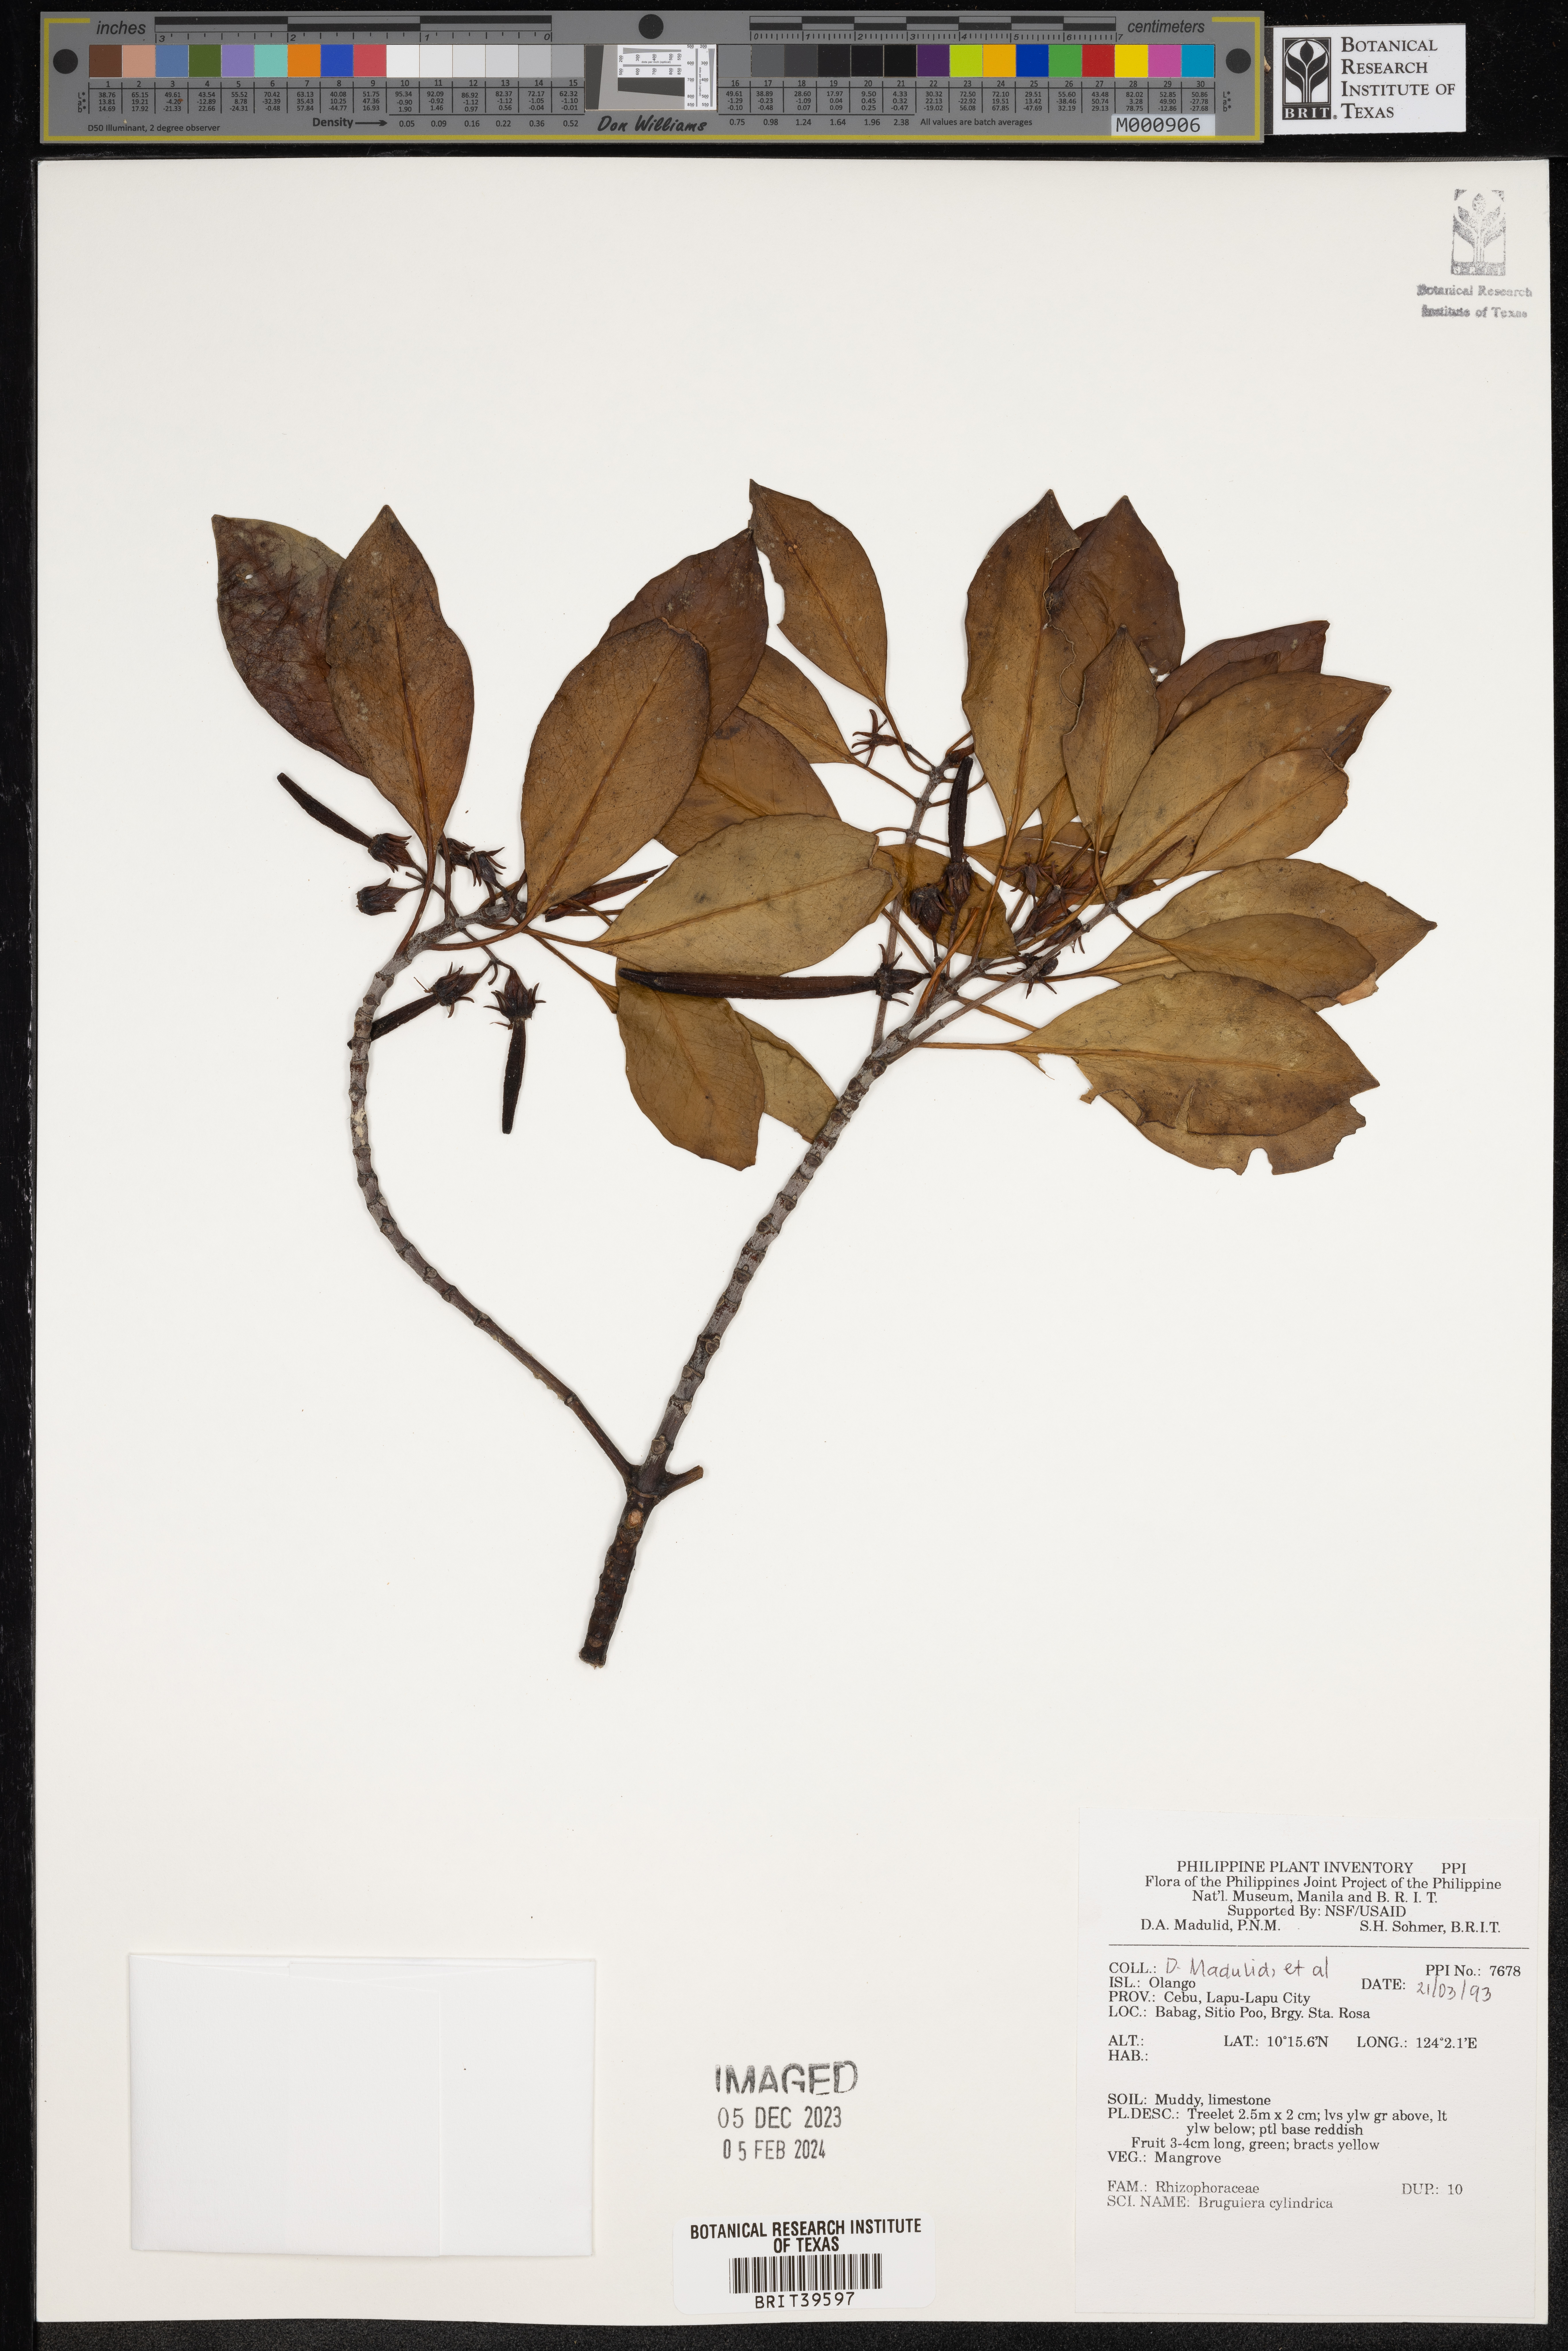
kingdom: Plantae
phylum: Tracheophyta
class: Magnoliopsida
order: Malpighiales
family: Rhizophoraceae
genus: Bruguiera
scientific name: Bruguiera cylindrica
